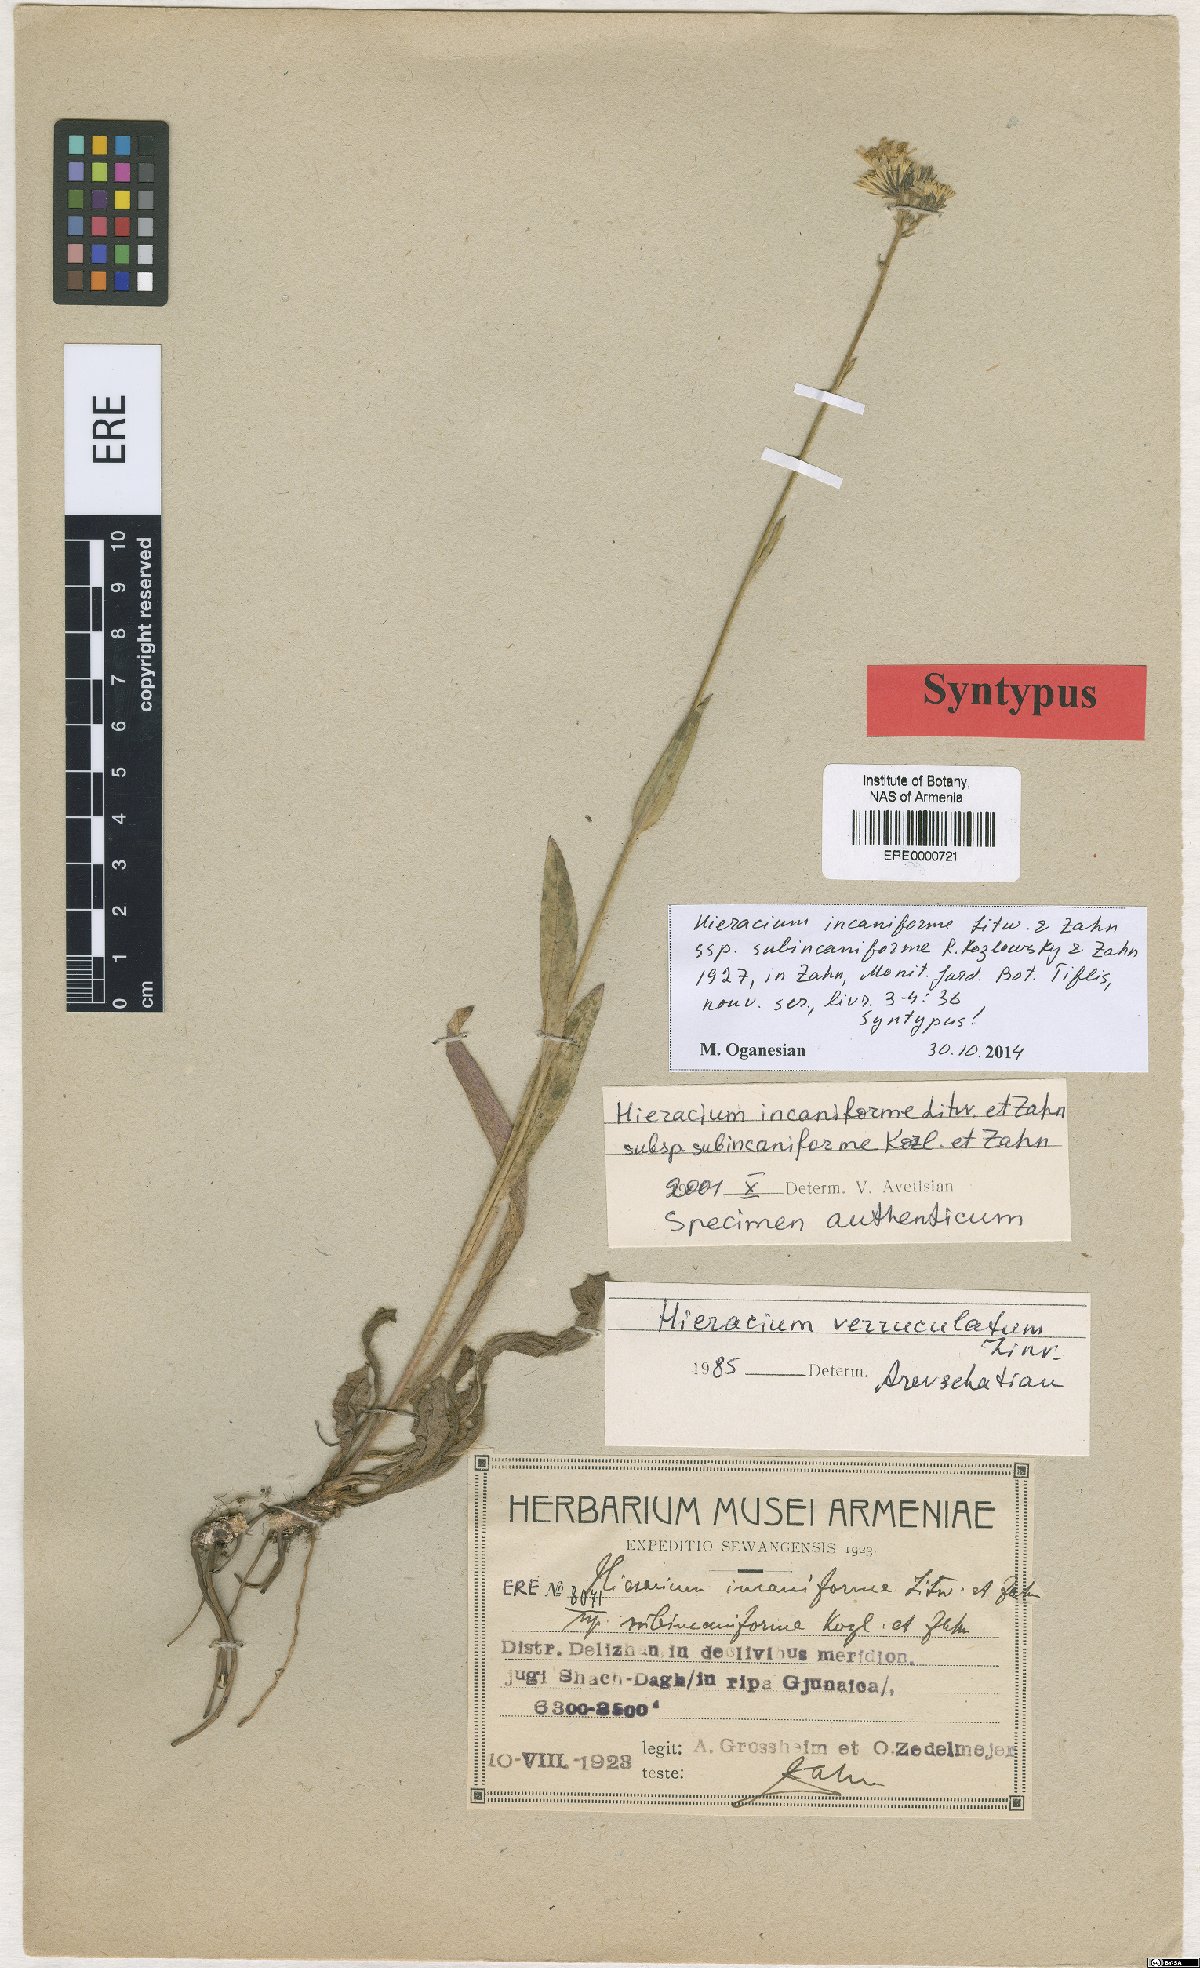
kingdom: Plantae
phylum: Tracheophyta
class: Magnoliopsida
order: Asterales
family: Asteraceae
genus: Pilosella
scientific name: Pilosella sintenisii
